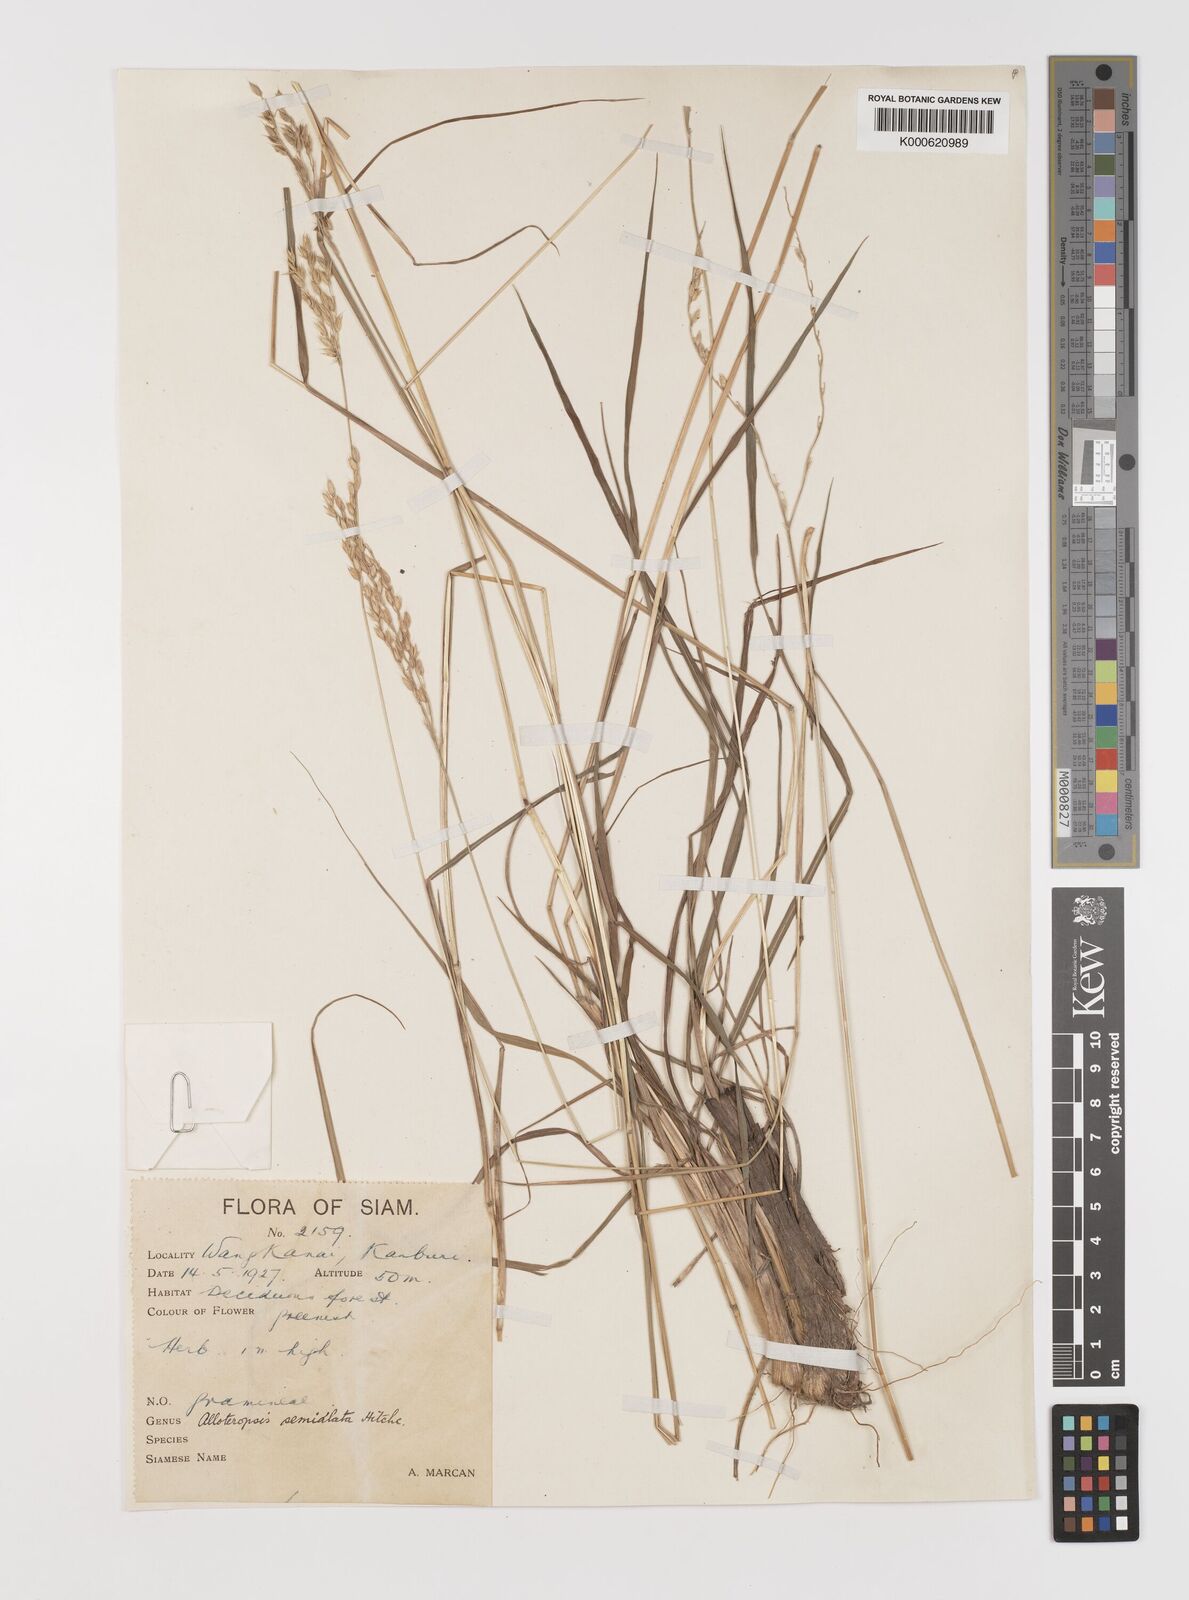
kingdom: Plantae
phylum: Tracheophyta
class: Liliopsida
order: Poales
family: Poaceae
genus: Alloteropsis
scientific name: Alloteropsis semialata
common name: Cockatoo grass
